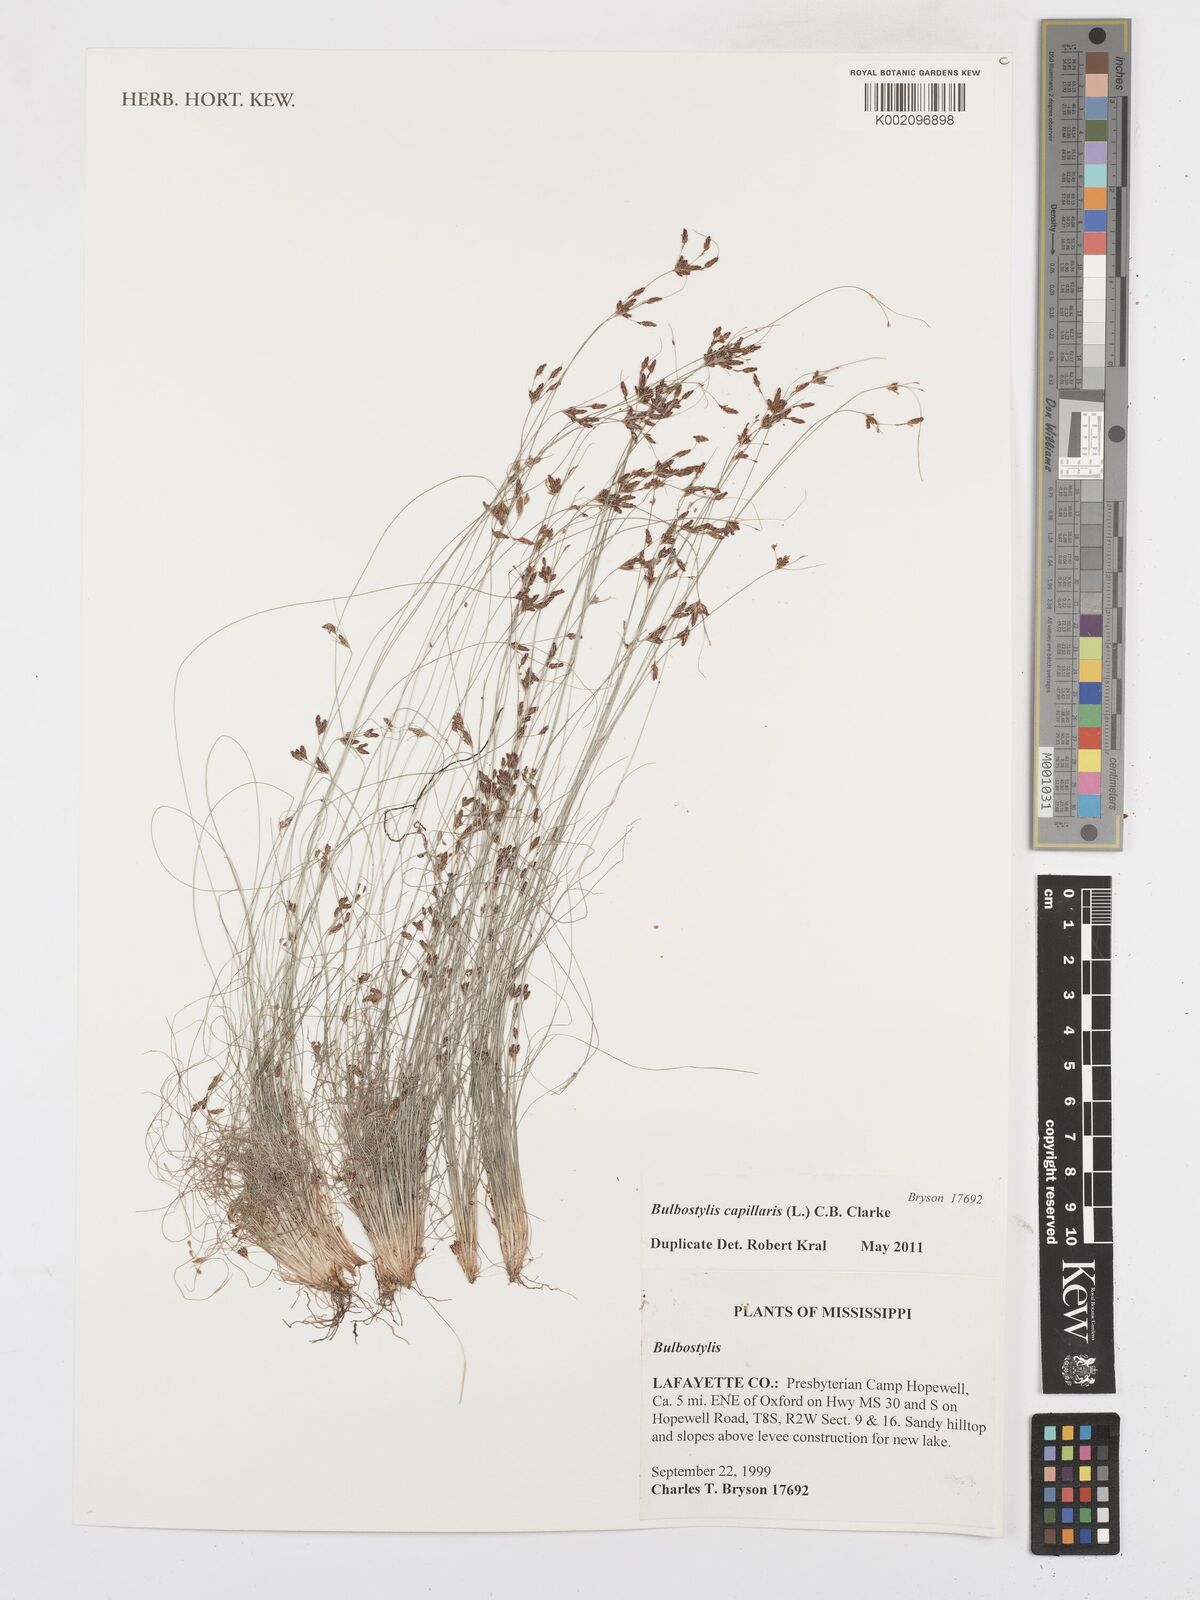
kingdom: Plantae
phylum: Tracheophyta
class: Liliopsida
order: Poales
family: Cyperaceae
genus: Bulbostylis
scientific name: Bulbostylis capillaris
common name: Densetuft hairsedge
